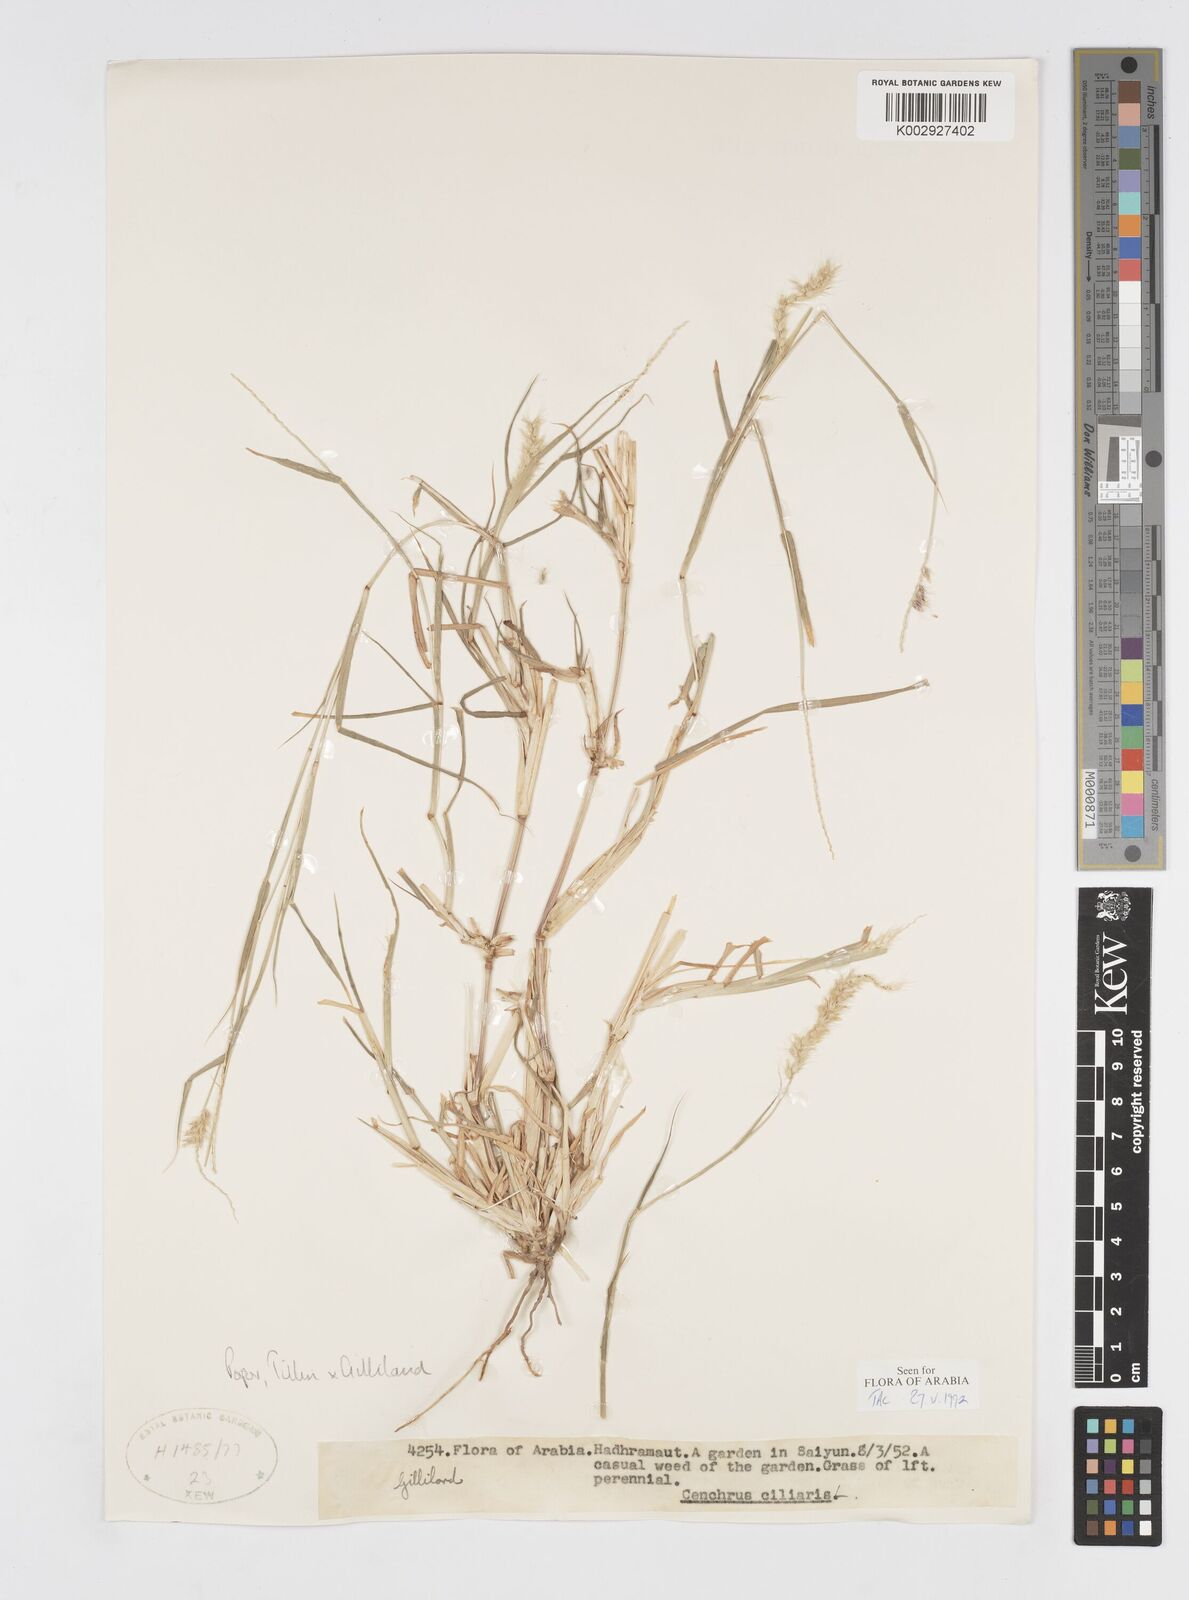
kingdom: Plantae
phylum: Tracheophyta
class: Liliopsida
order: Poales
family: Poaceae
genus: Cenchrus
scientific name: Cenchrus ciliaris
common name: Buffelgrass
